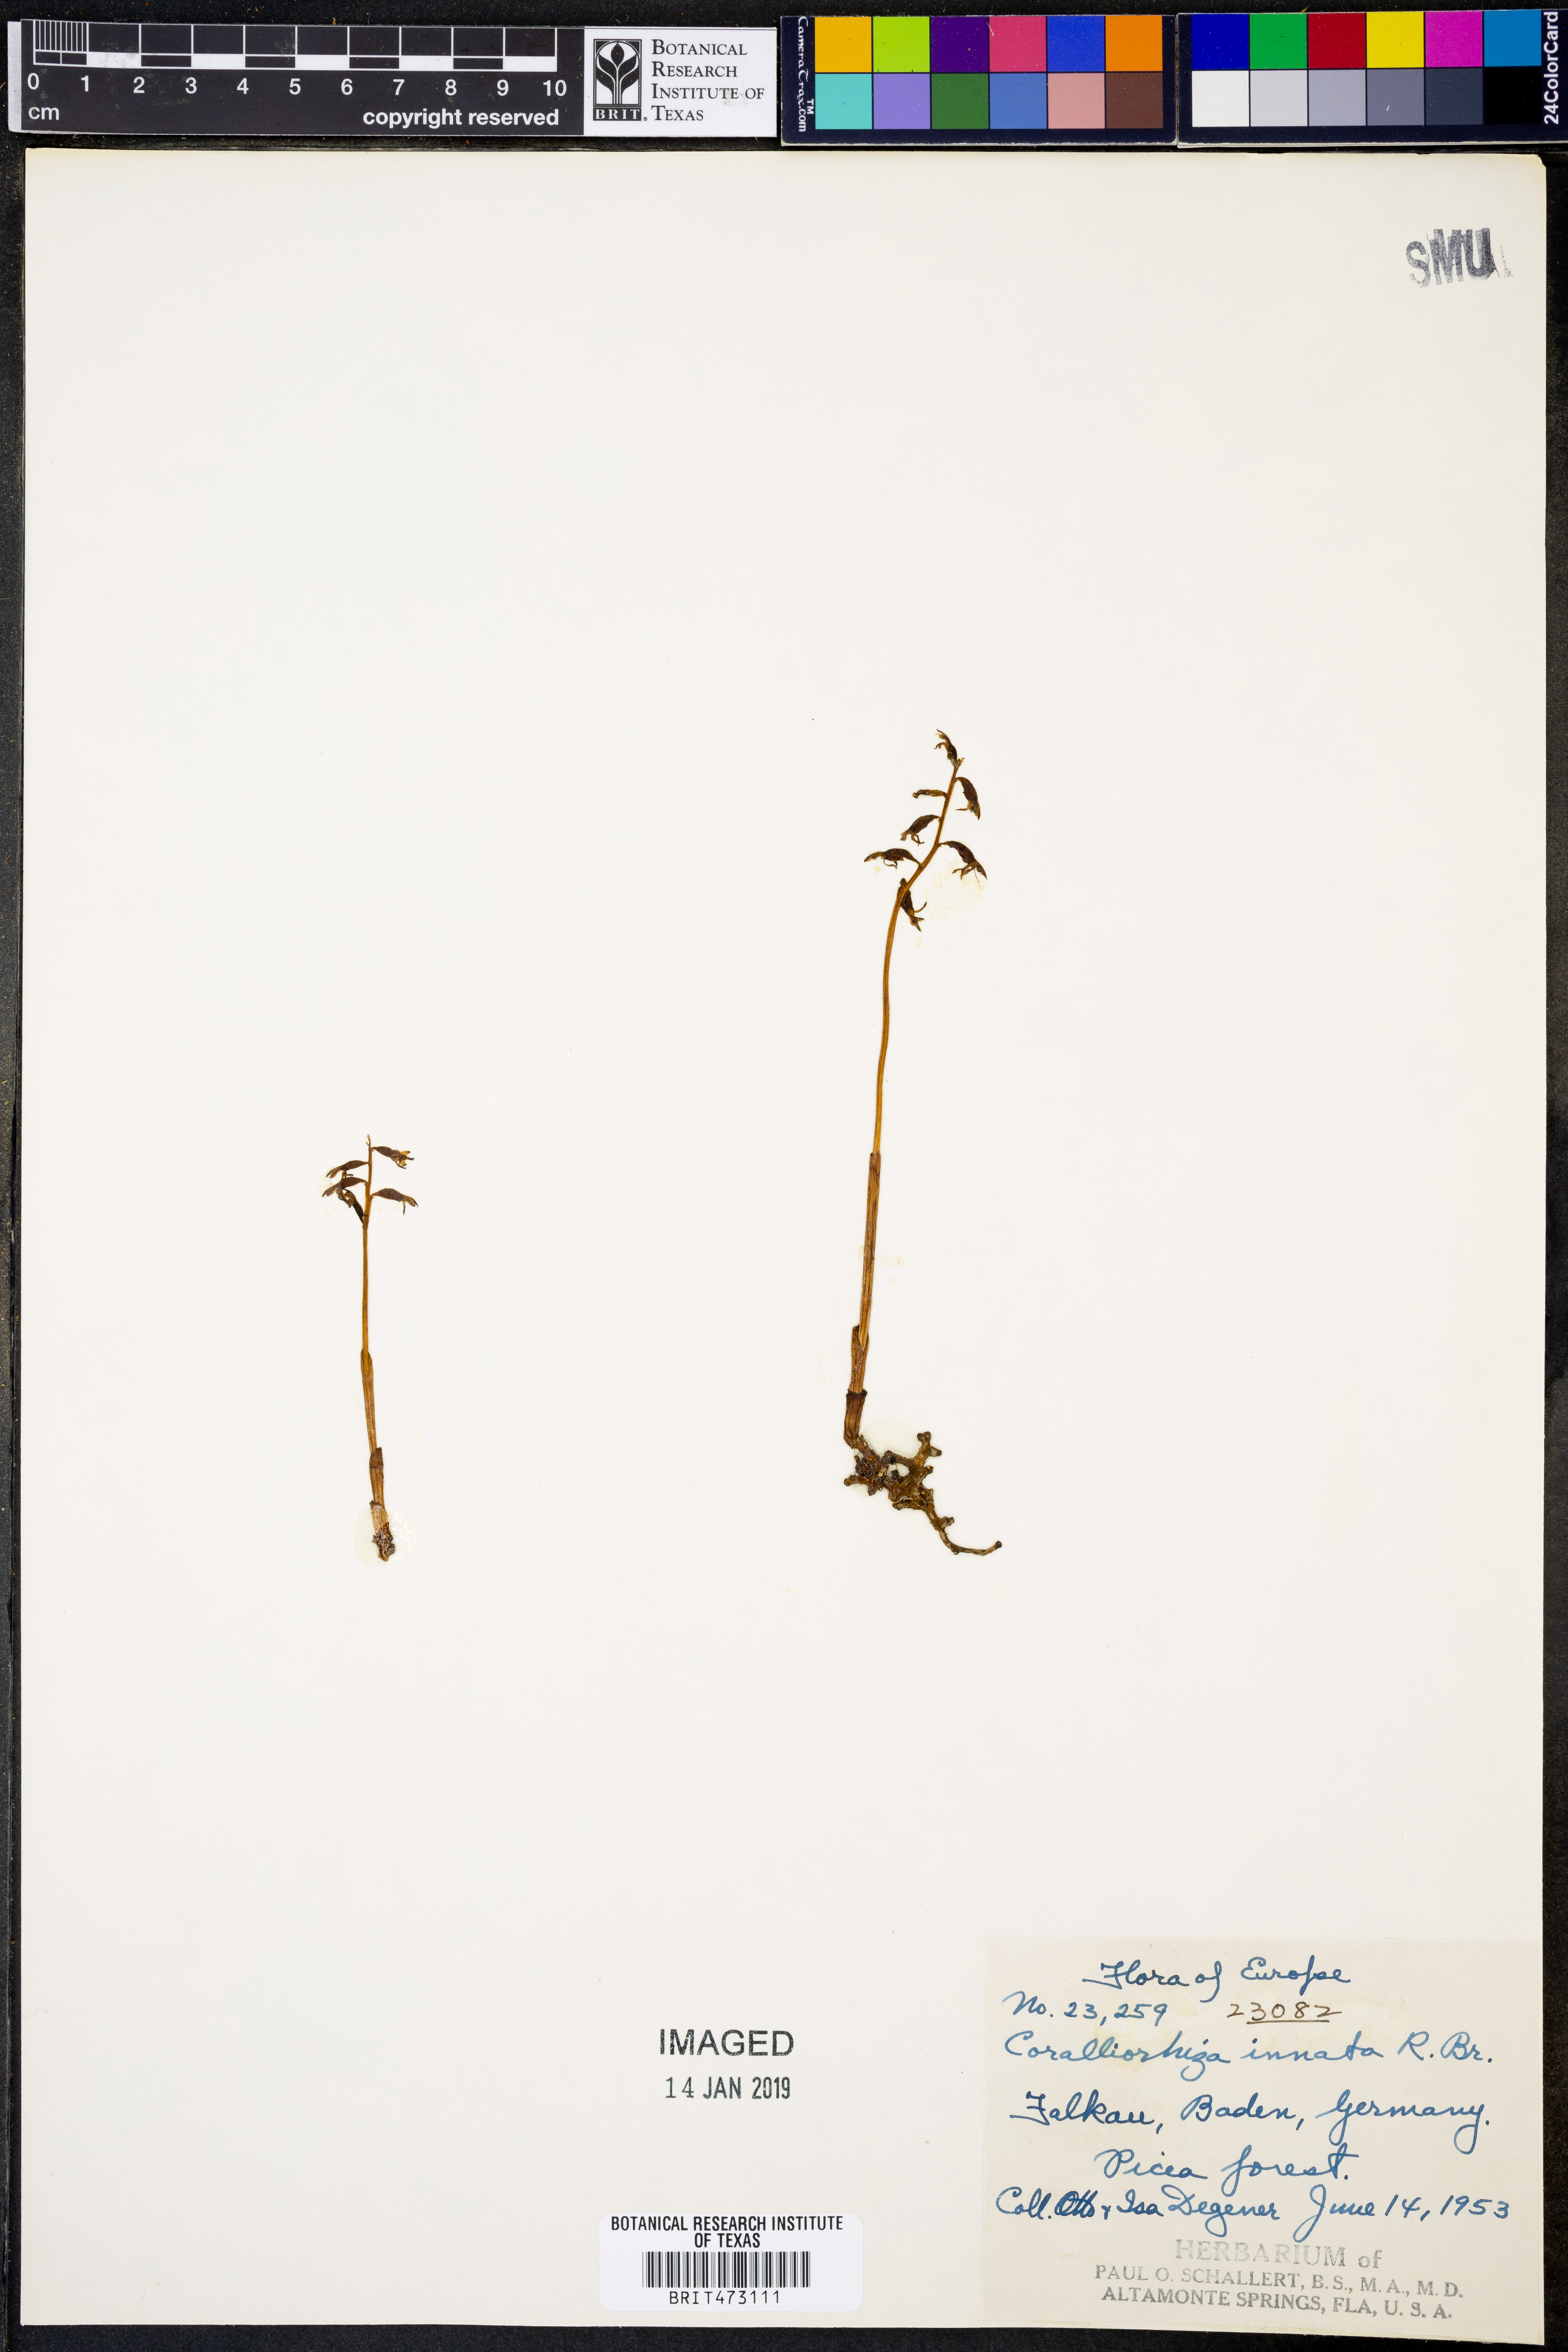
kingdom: Plantae
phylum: Tracheophyta
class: Liliopsida
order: Asparagales
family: Orchidaceae
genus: Corallorhiza
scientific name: Corallorhiza trifida
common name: Yellow coralroot
